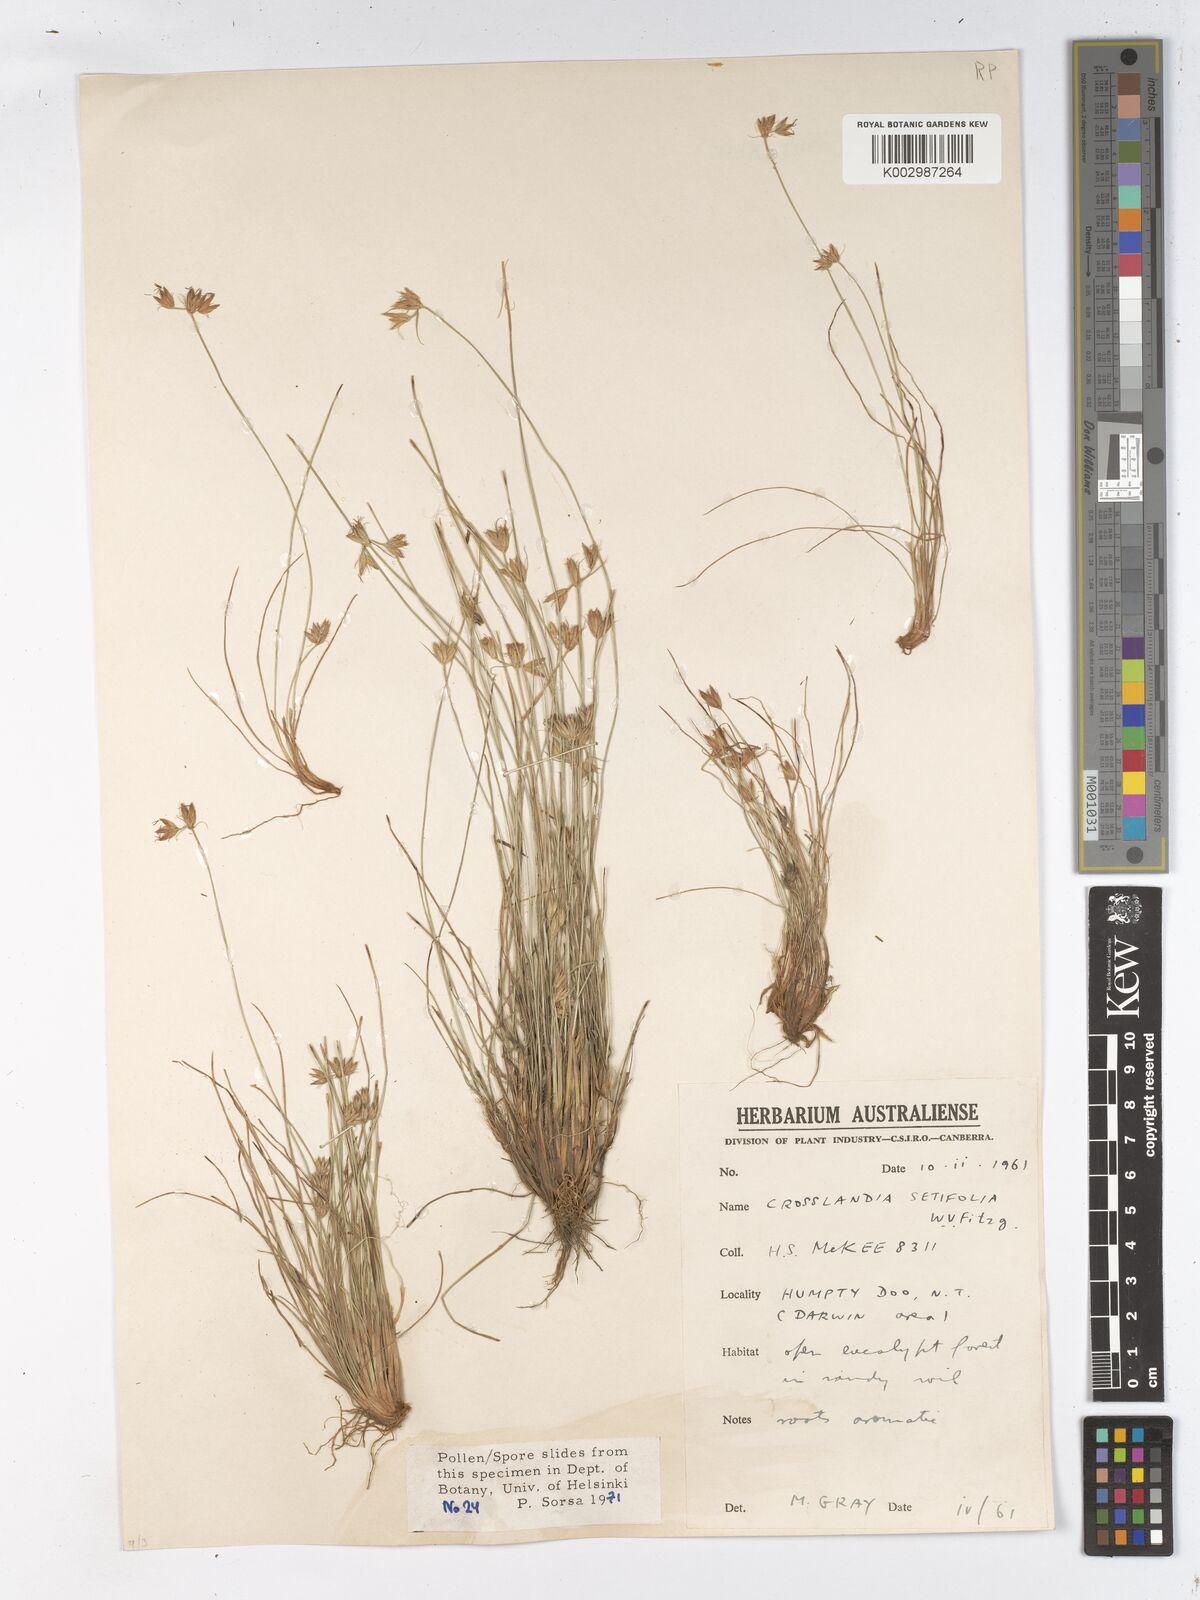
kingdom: Plantae
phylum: Tracheophyta
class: Liliopsida
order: Poales
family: Cyperaceae
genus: Fimbristylis
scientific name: Fimbristylis crosslandii
